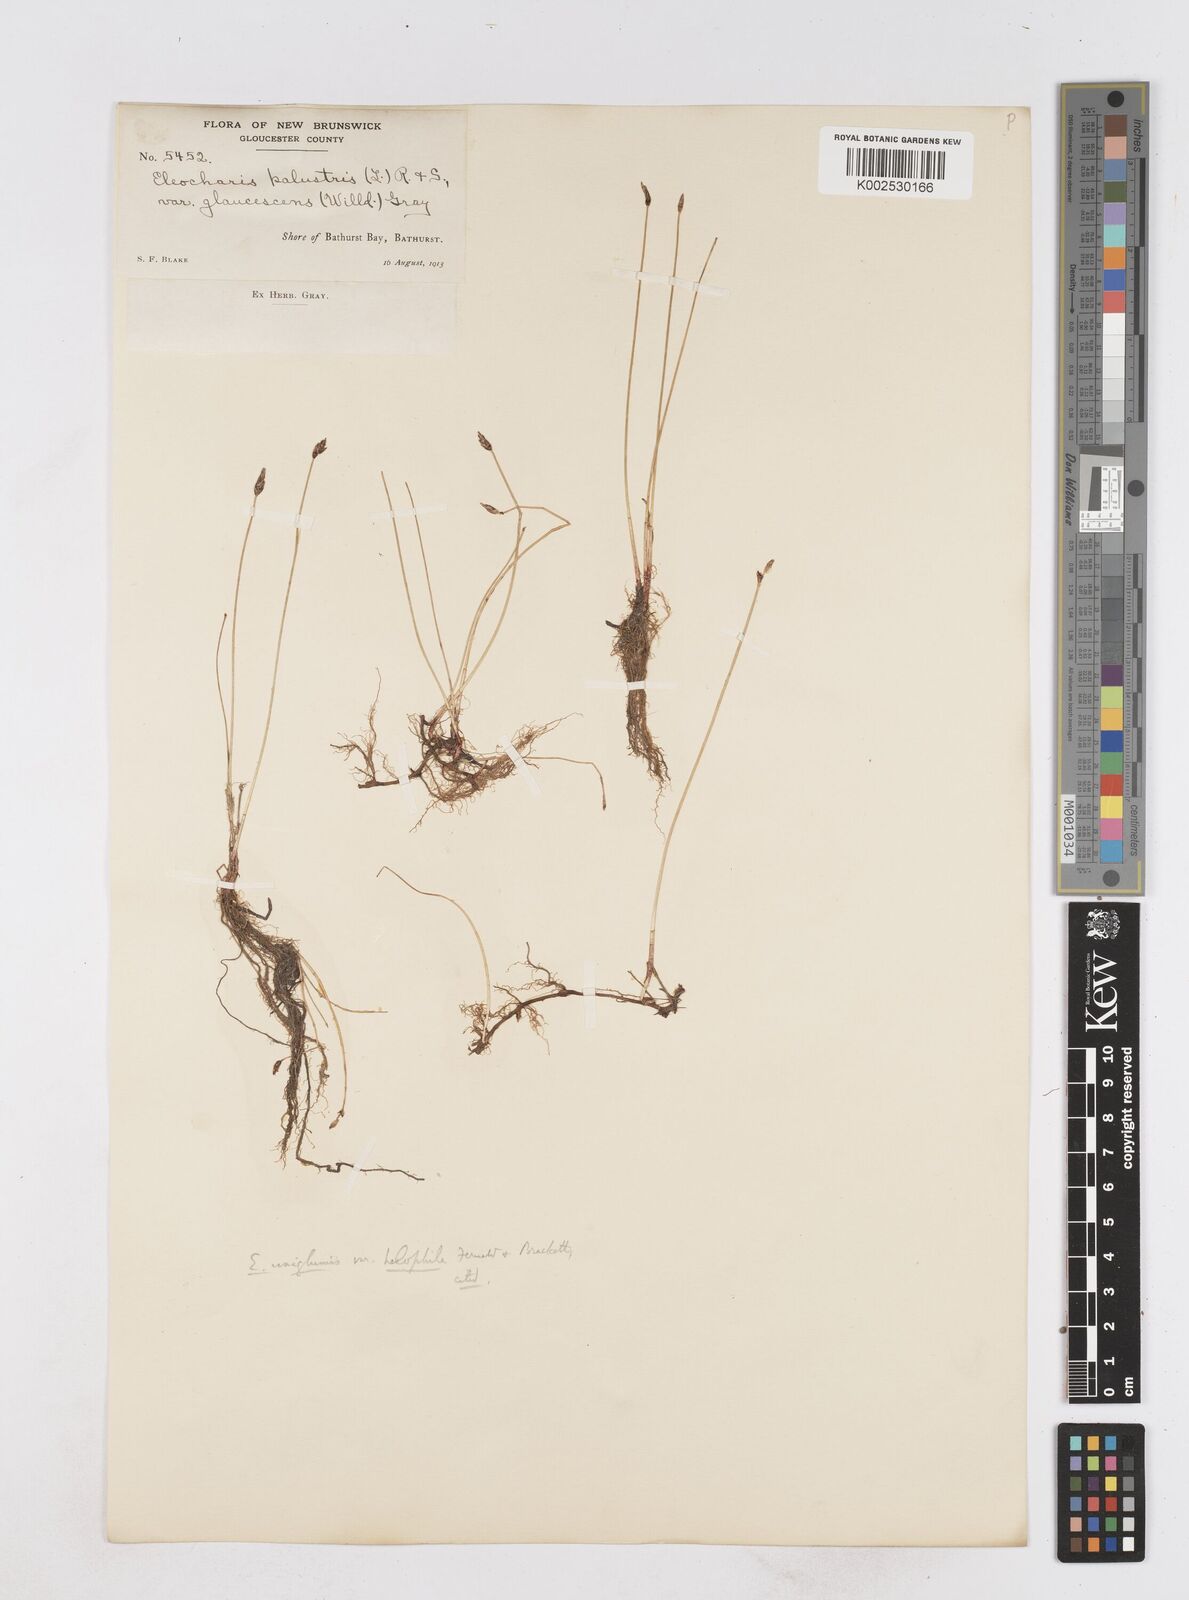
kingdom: Plantae
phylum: Tracheophyta
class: Liliopsida
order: Poales
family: Cyperaceae
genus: Eleocharis
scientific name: Eleocharis uniglumis
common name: Slender spike-rush
